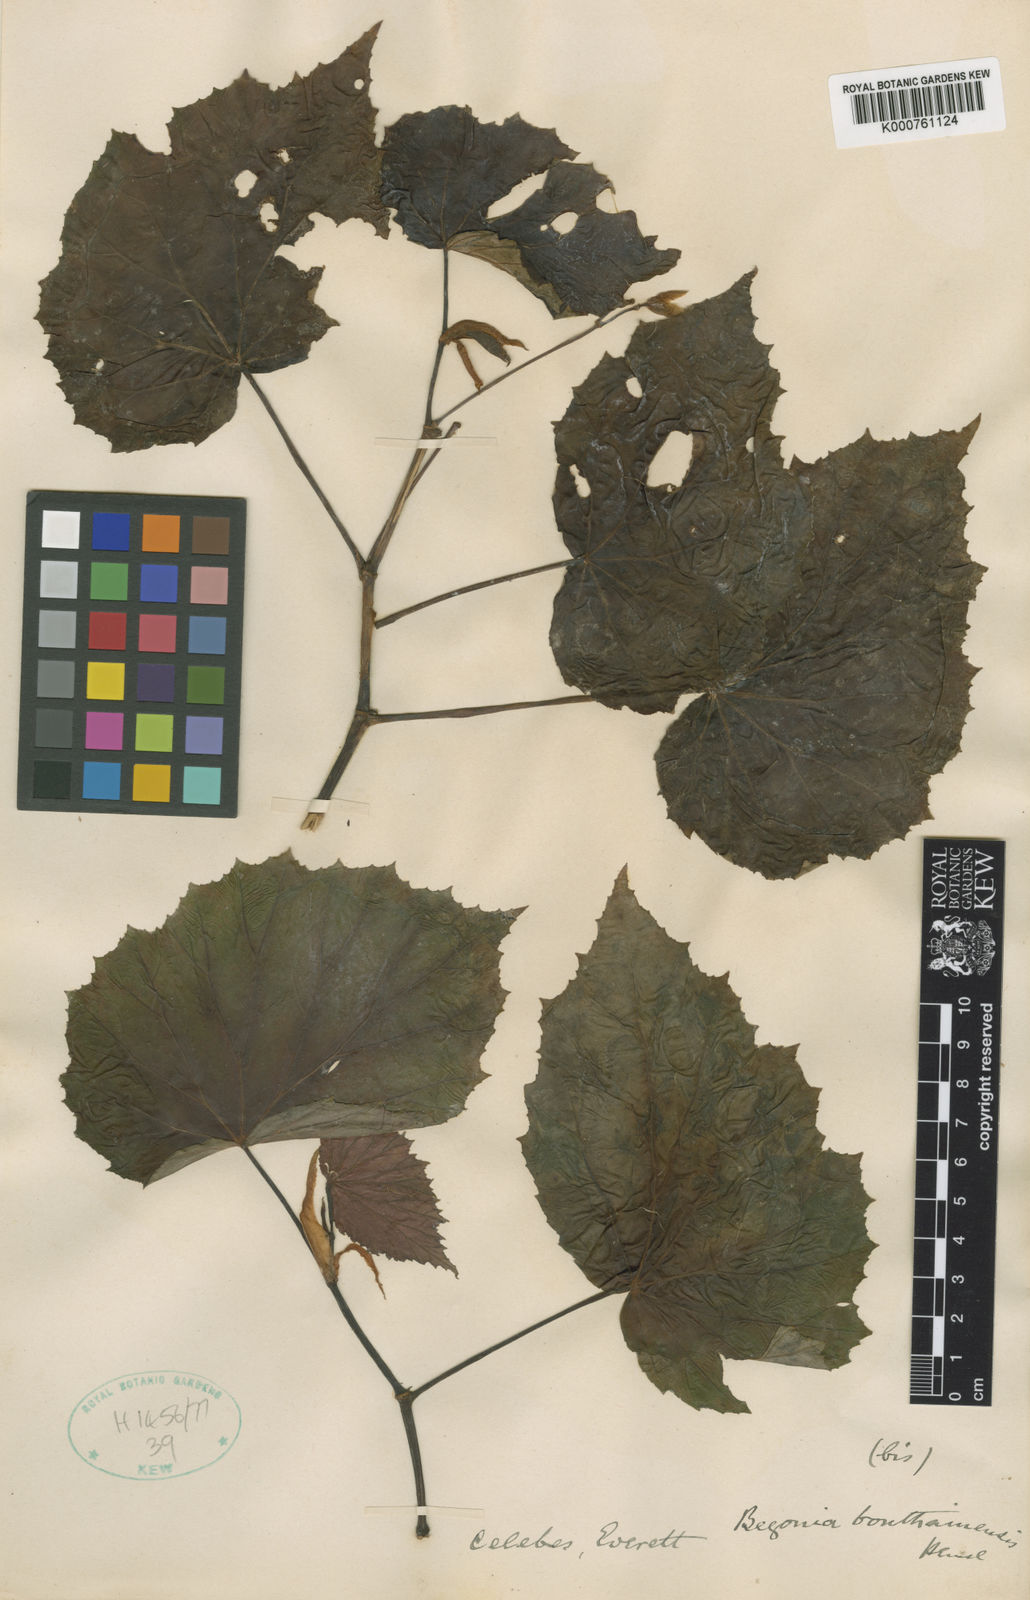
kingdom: Plantae
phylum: Tracheophyta
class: Magnoliopsida
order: Cucurbitales
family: Begoniaceae
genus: Begonia
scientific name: Begonia bonthainensis
